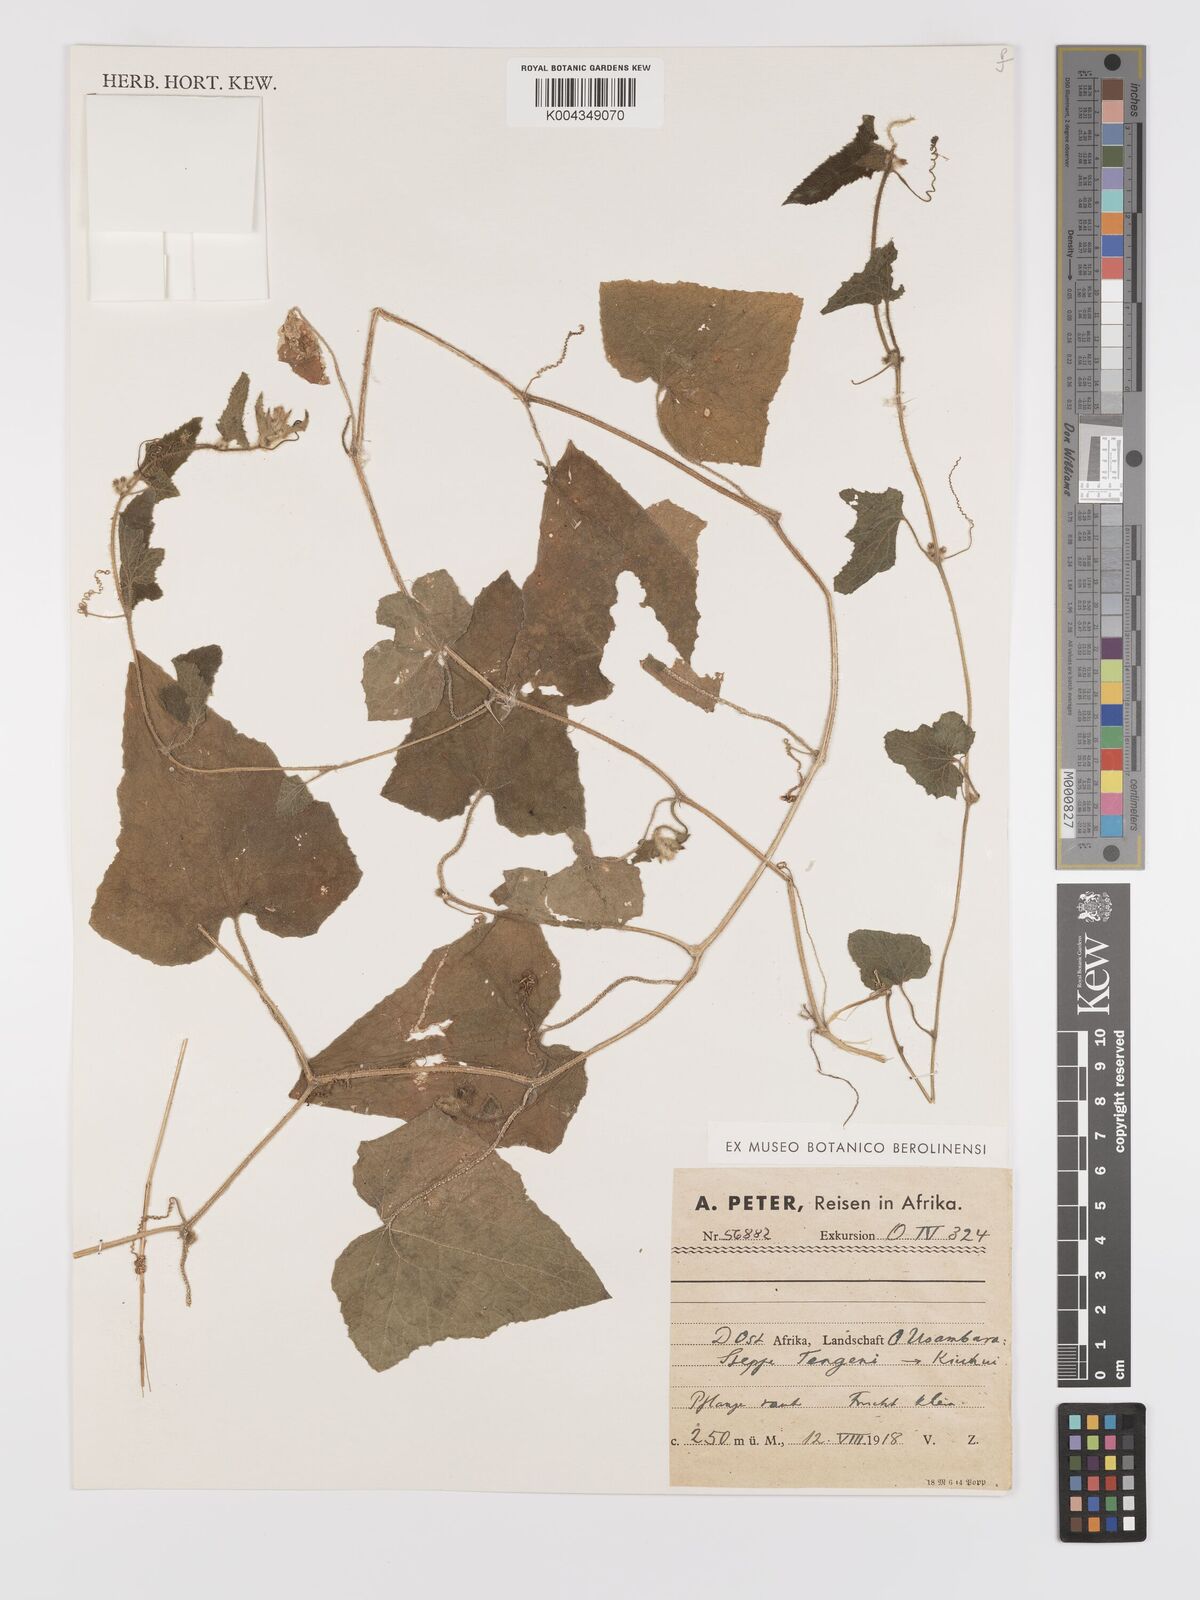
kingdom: Plantae
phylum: Tracheophyta
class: Magnoliopsida
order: Cucurbitales
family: Cucurbitaceae
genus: Cucumis
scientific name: Cucumis maderaspatanus
